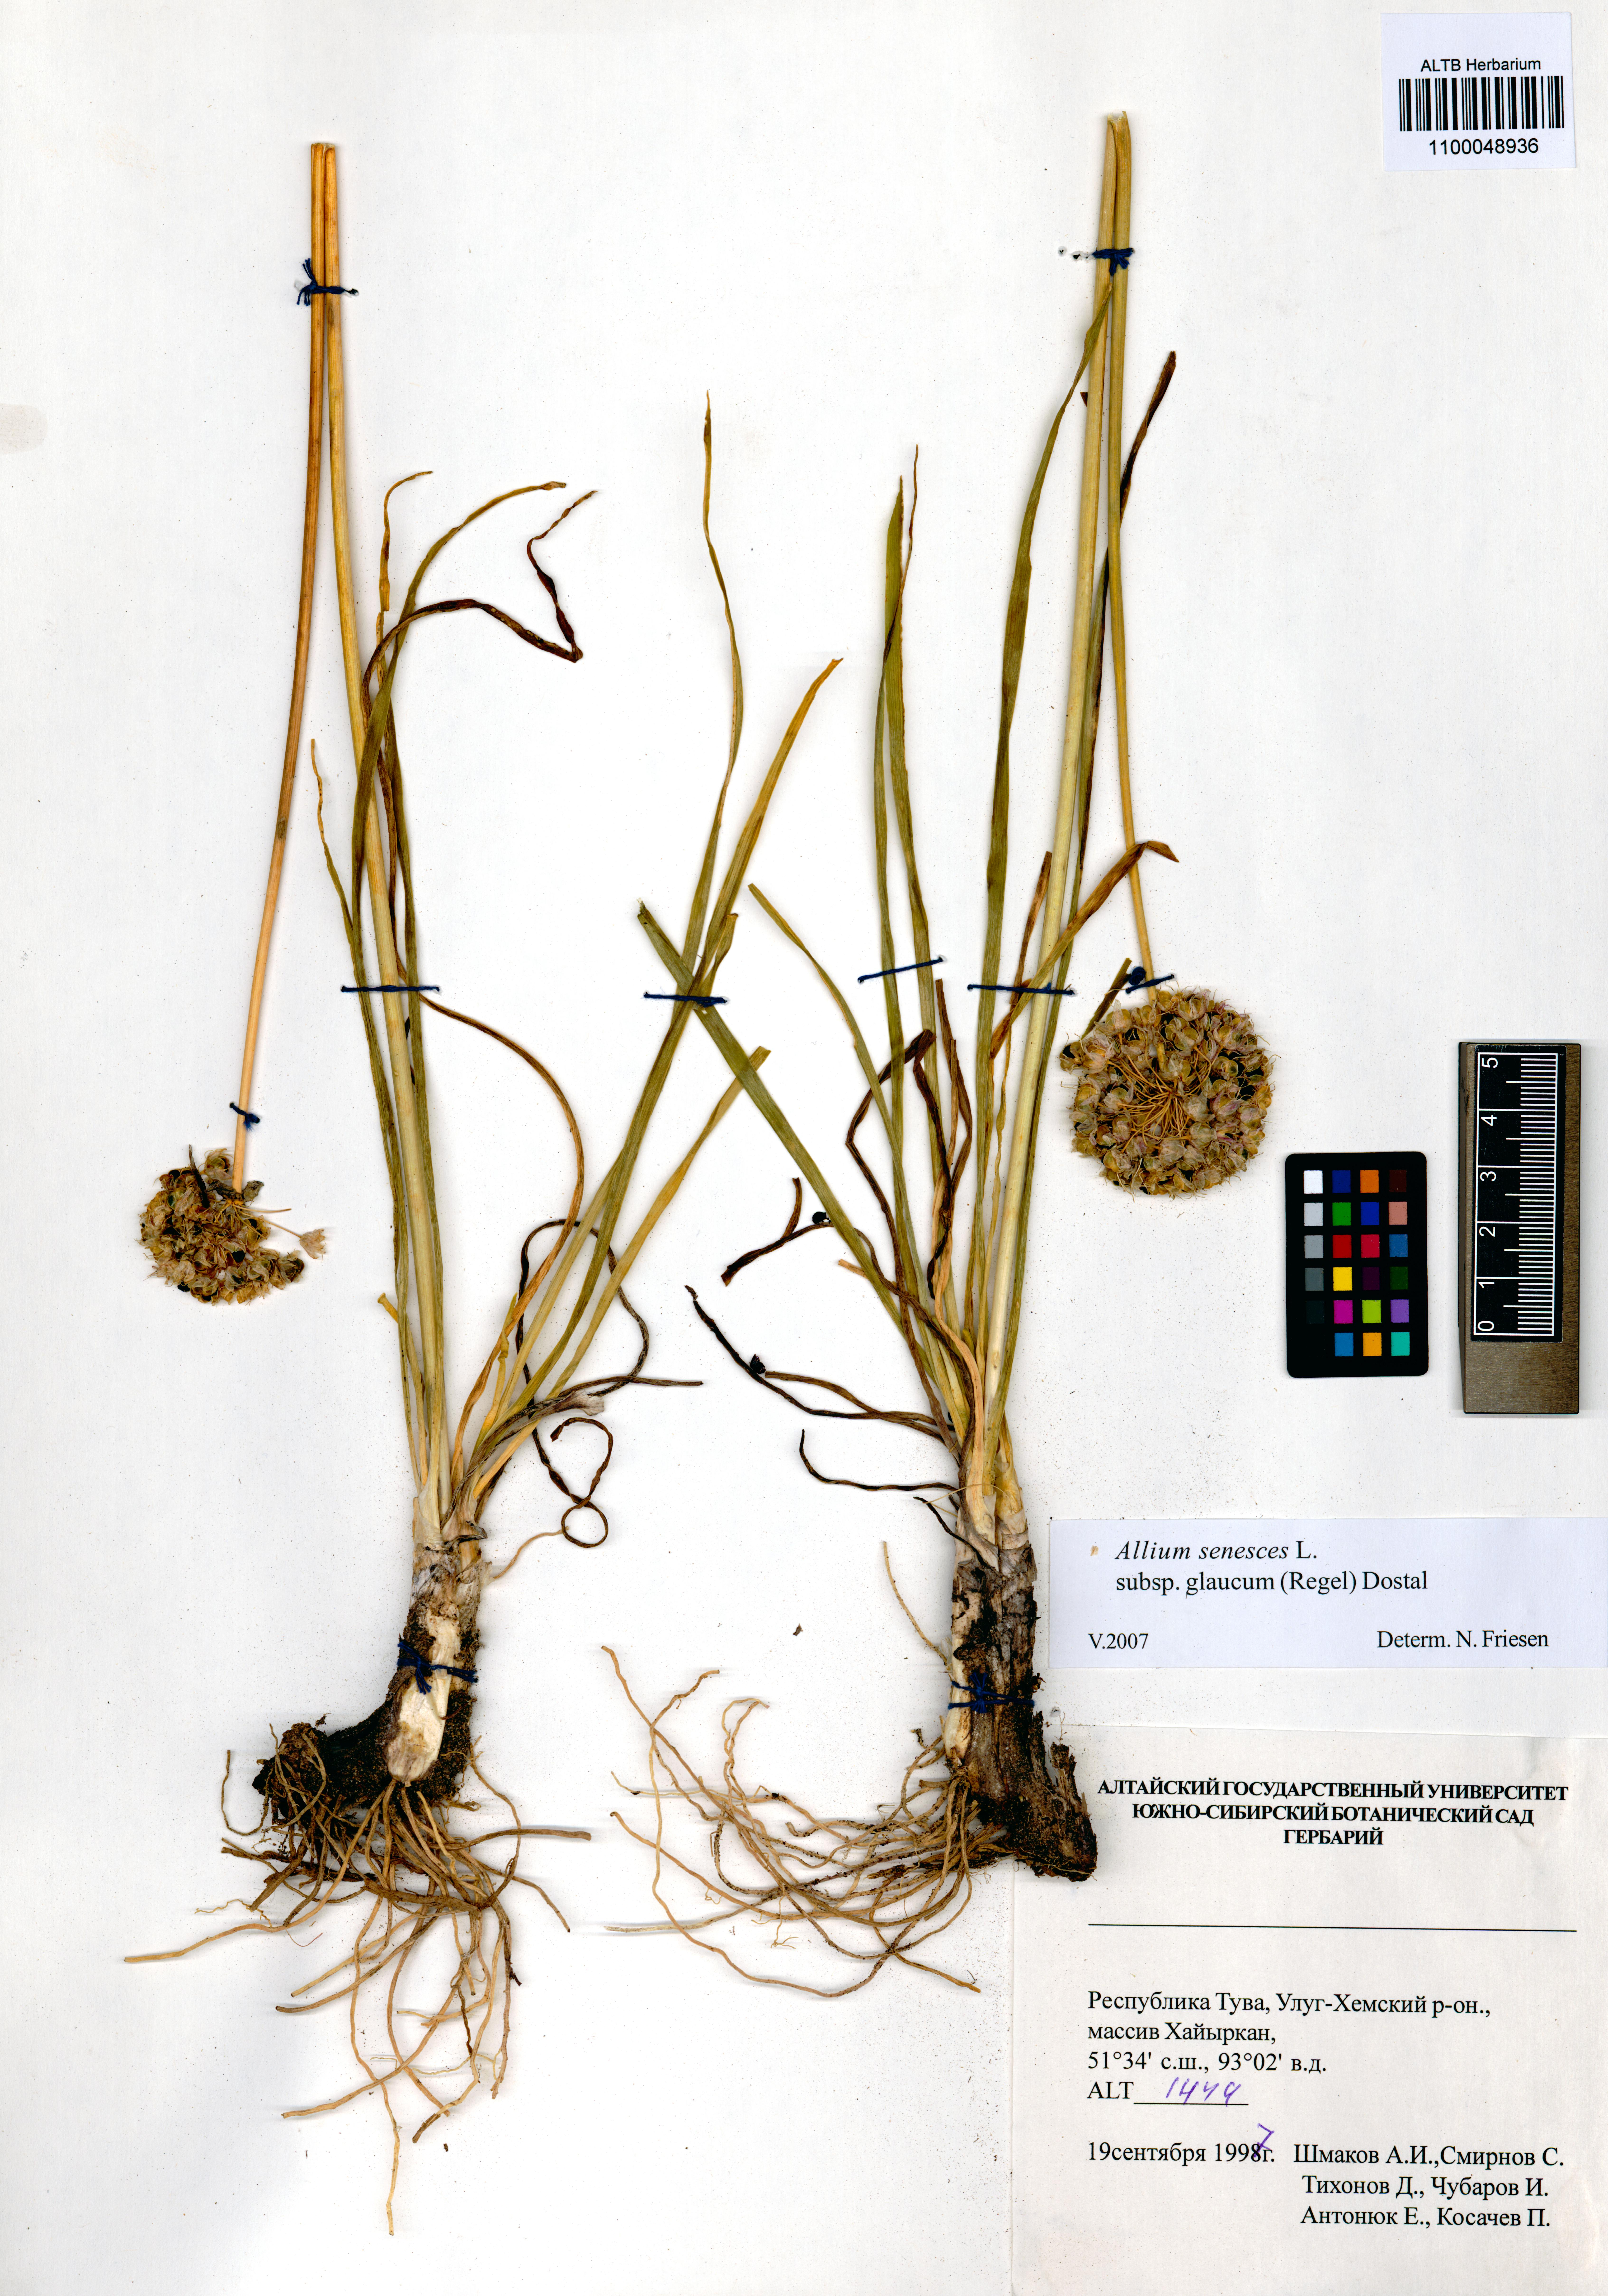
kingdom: Plantae
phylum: Tracheophyta
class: Liliopsida
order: Asparagales
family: Amaryllidaceae
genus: Allium
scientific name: Allium senescens
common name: German garlic
